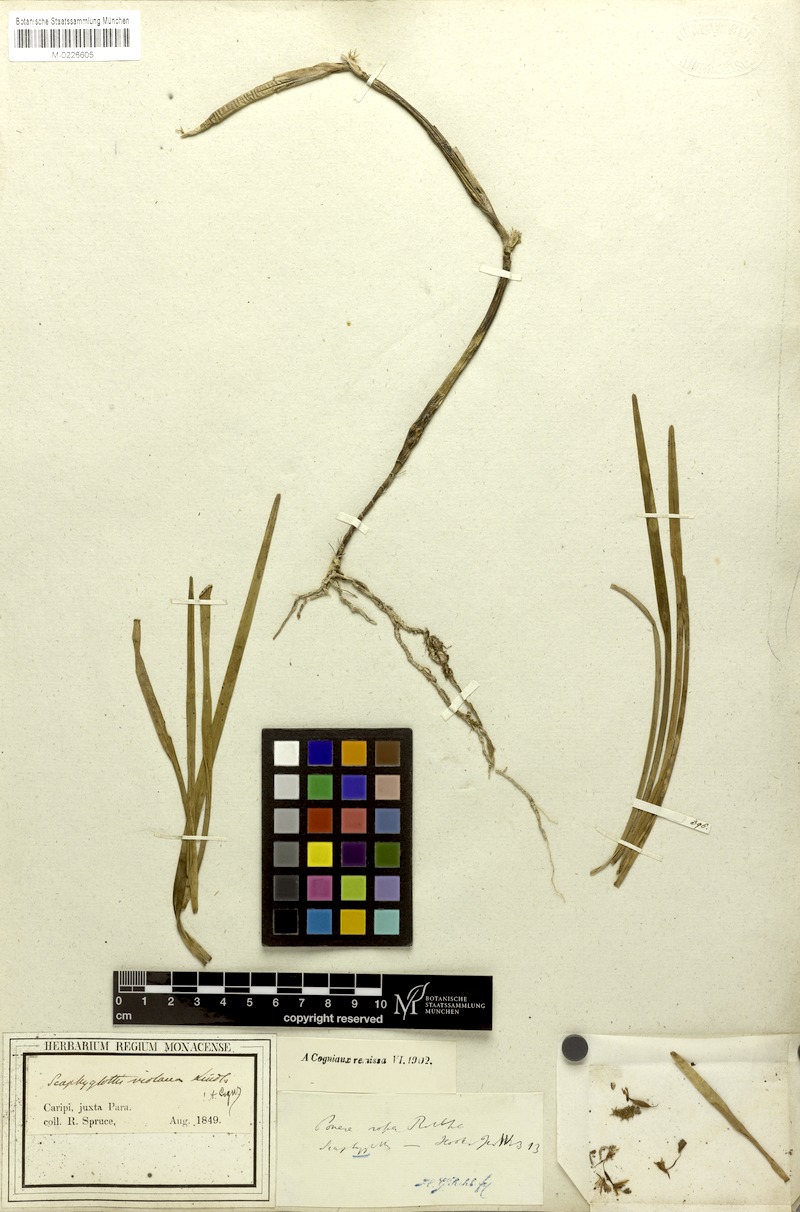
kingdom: Plantae
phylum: Tracheophyta
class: Liliopsida
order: Asparagales
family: Orchidaceae
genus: Scaphyglottis
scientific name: Scaphyglottis graminifolia
